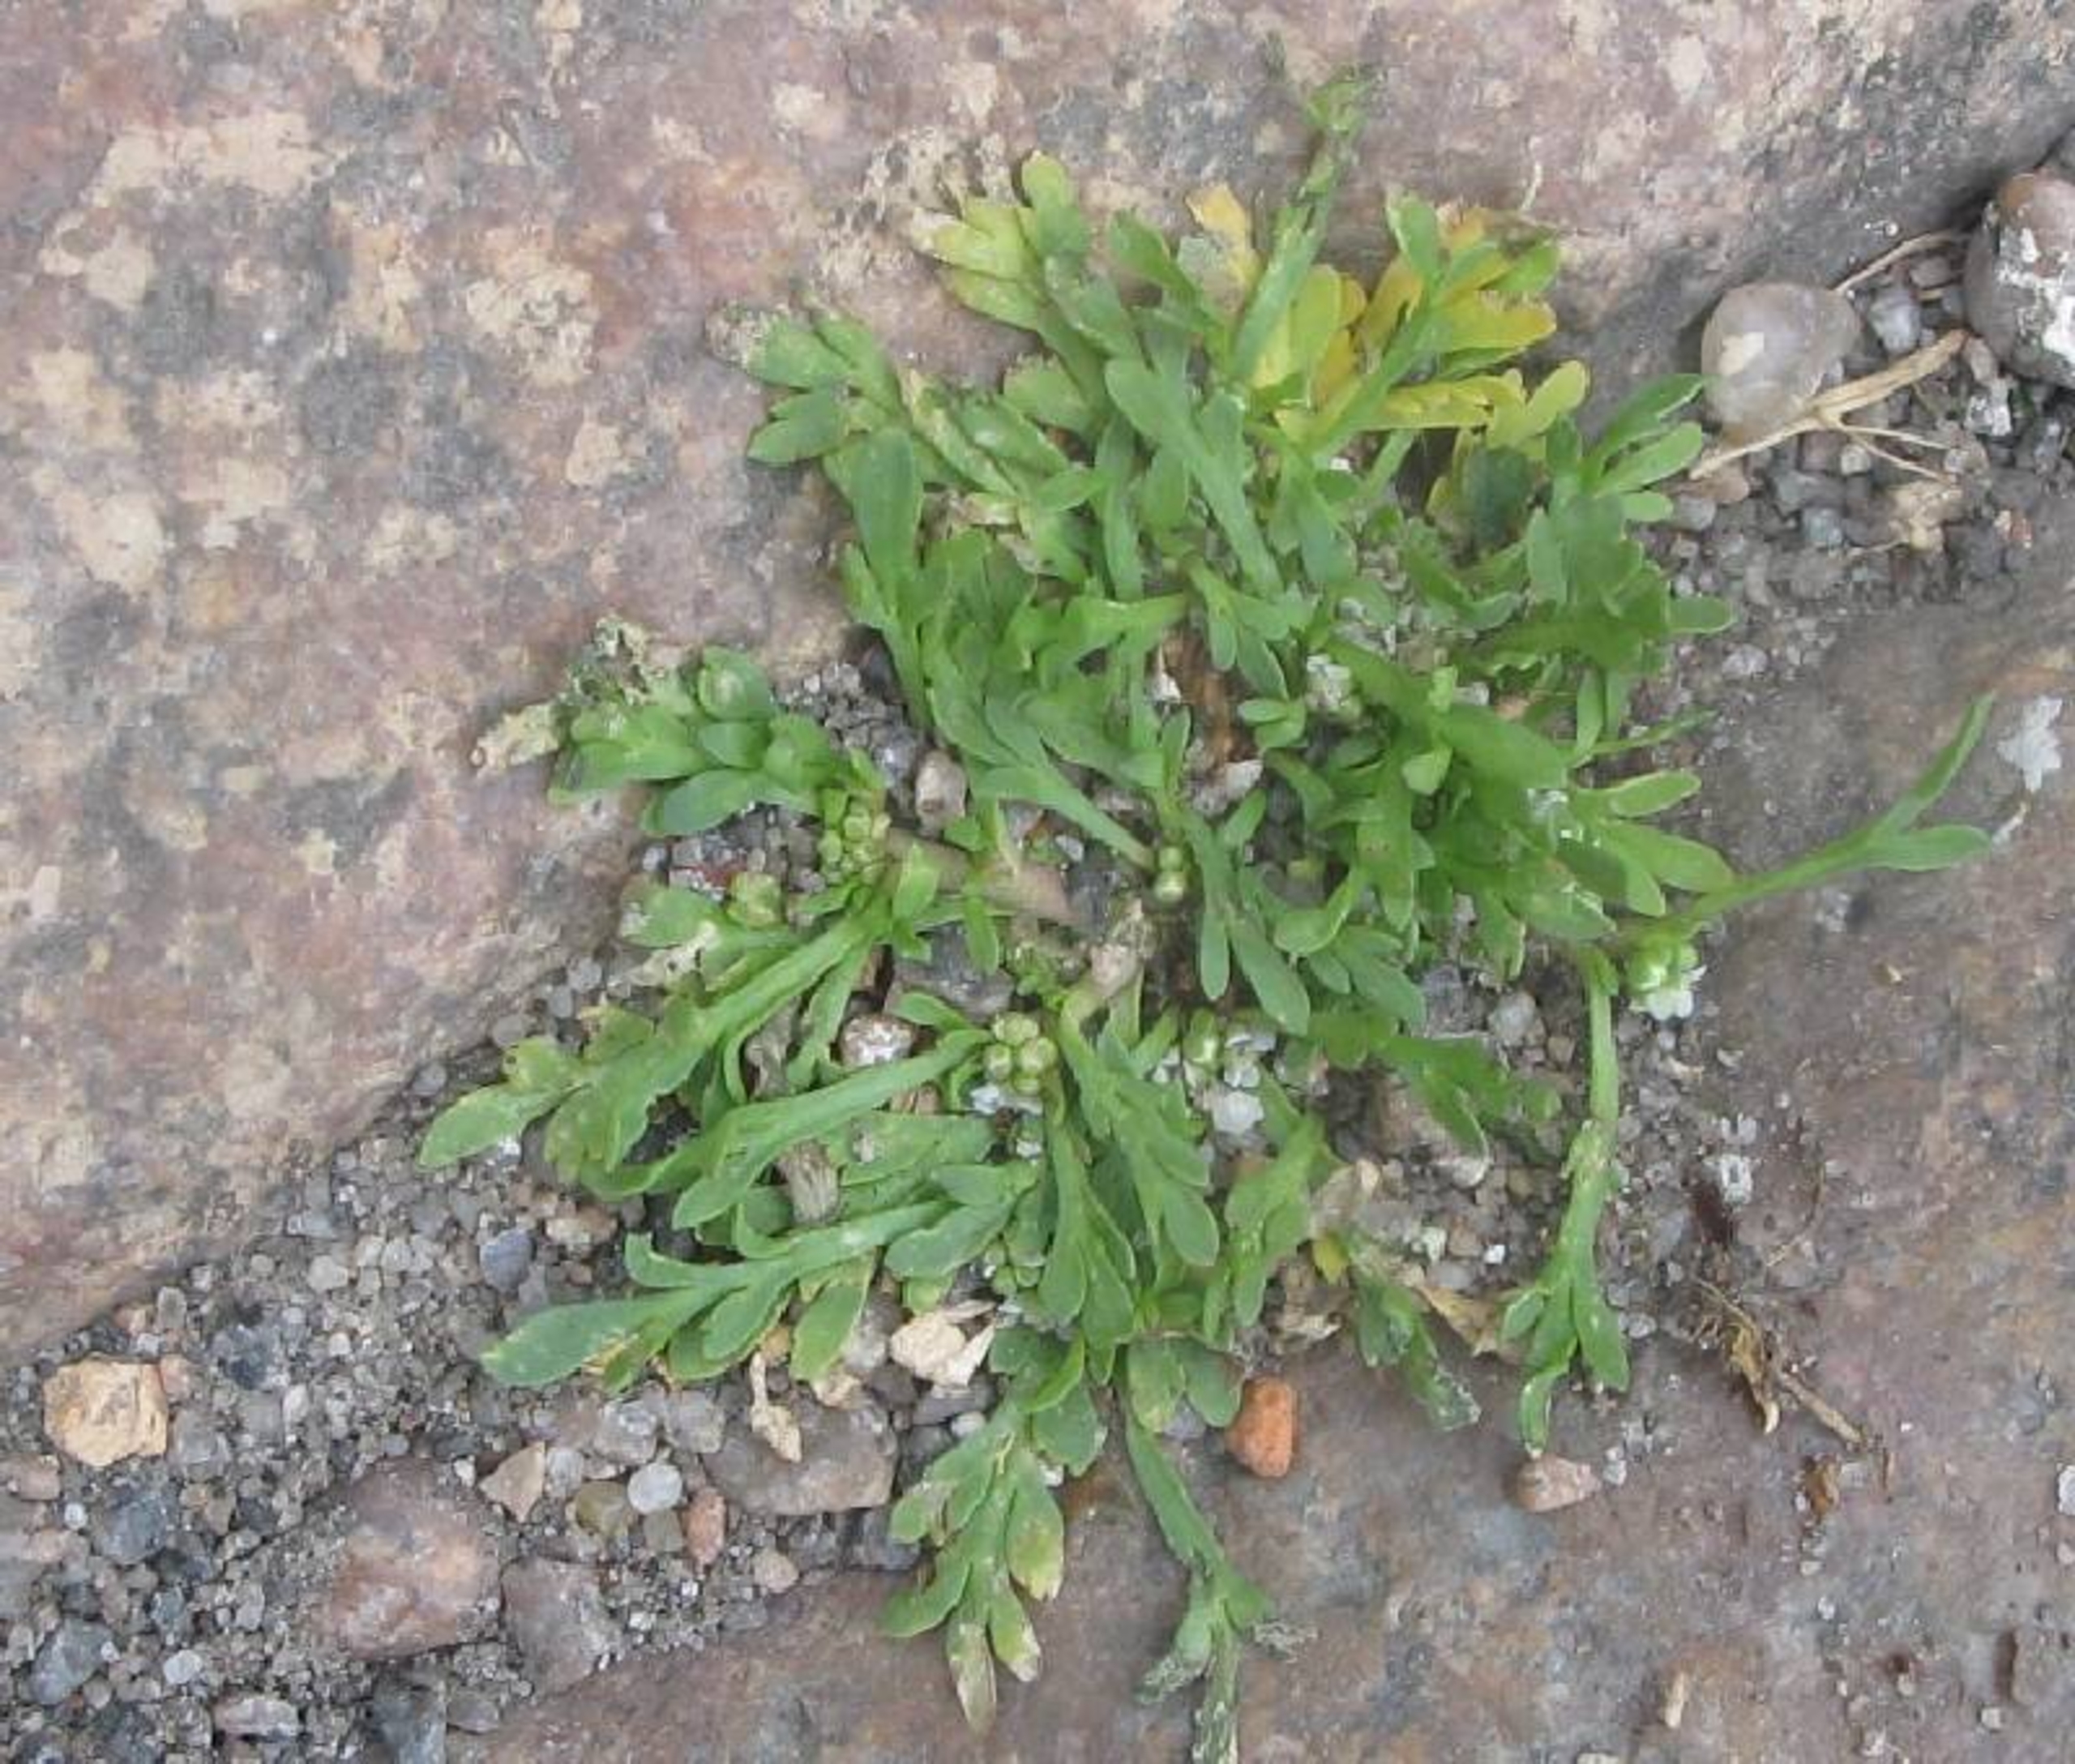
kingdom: Plantae
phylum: Tracheophyta
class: Magnoliopsida
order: Brassicales
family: Brassicaceae
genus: Lepidium
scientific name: Lepidium coronopus
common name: Ravnefod
